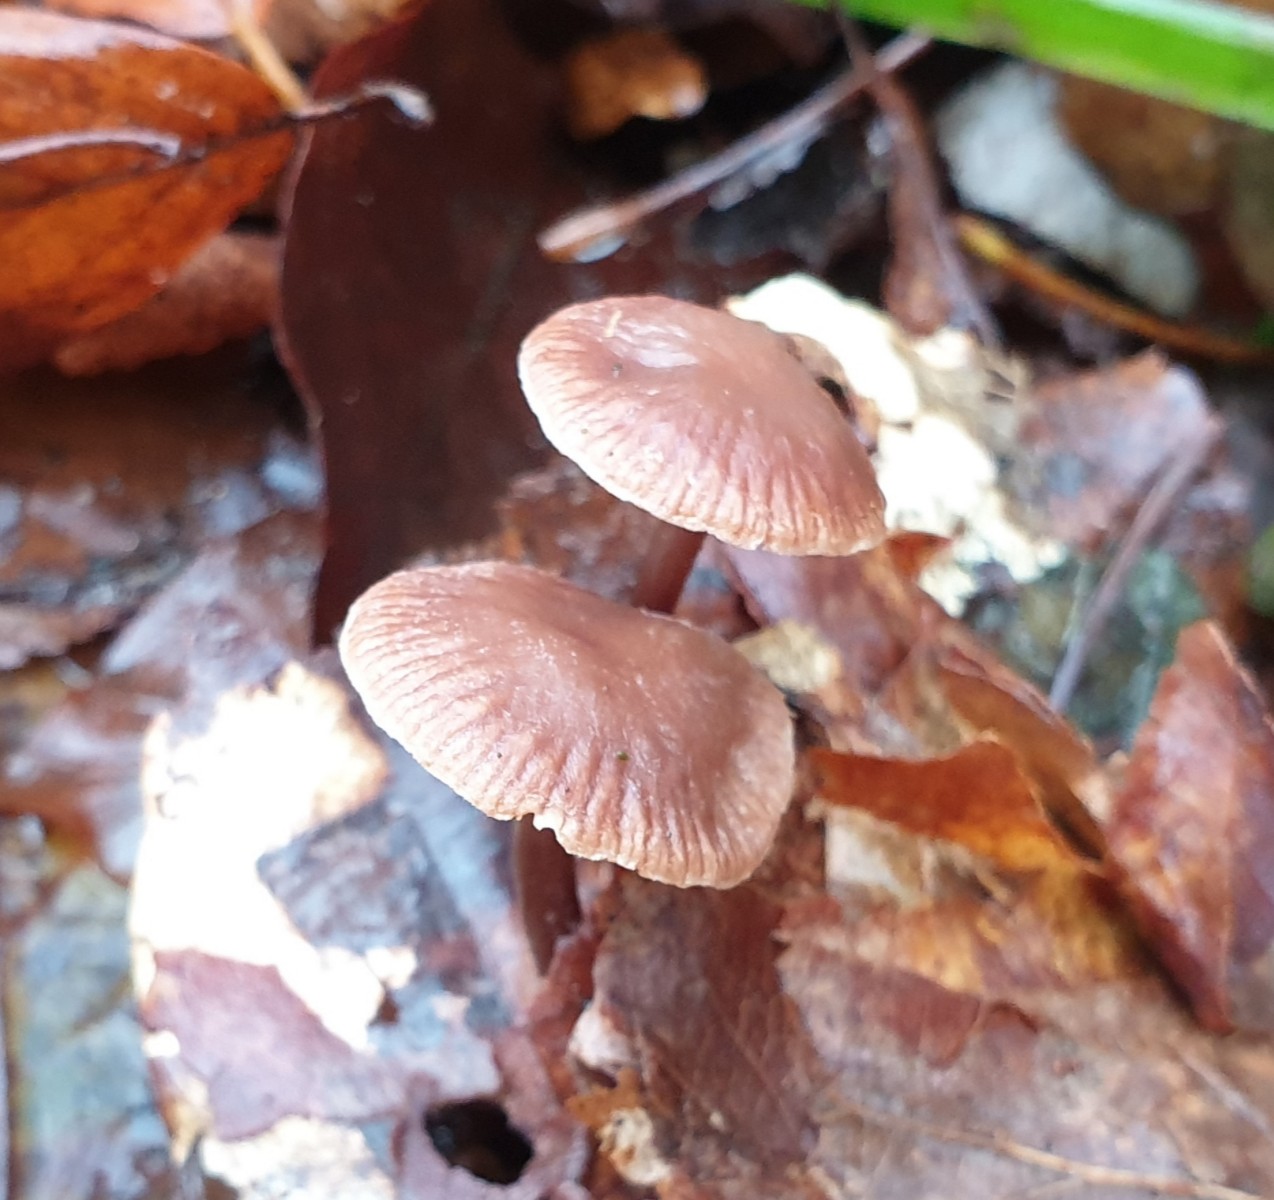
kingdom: Fungi
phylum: Basidiomycota
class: Agaricomycetes
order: Agaricales
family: Omphalotaceae
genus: Gymnopus
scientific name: Gymnopus fagiphilus
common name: bøgeløv-fladhat
